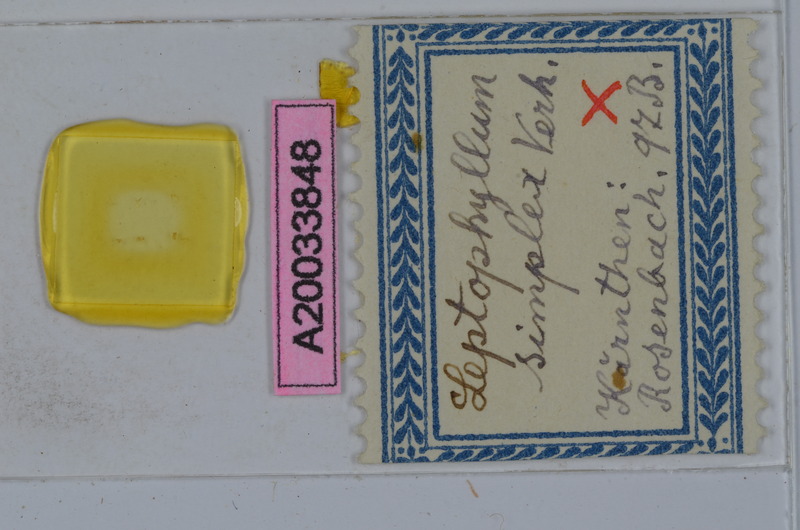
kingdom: Animalia
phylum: Arthropoda
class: Diplopoda
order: Julida
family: Julidae
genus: Enantiulus
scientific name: Enantiulus simplex
